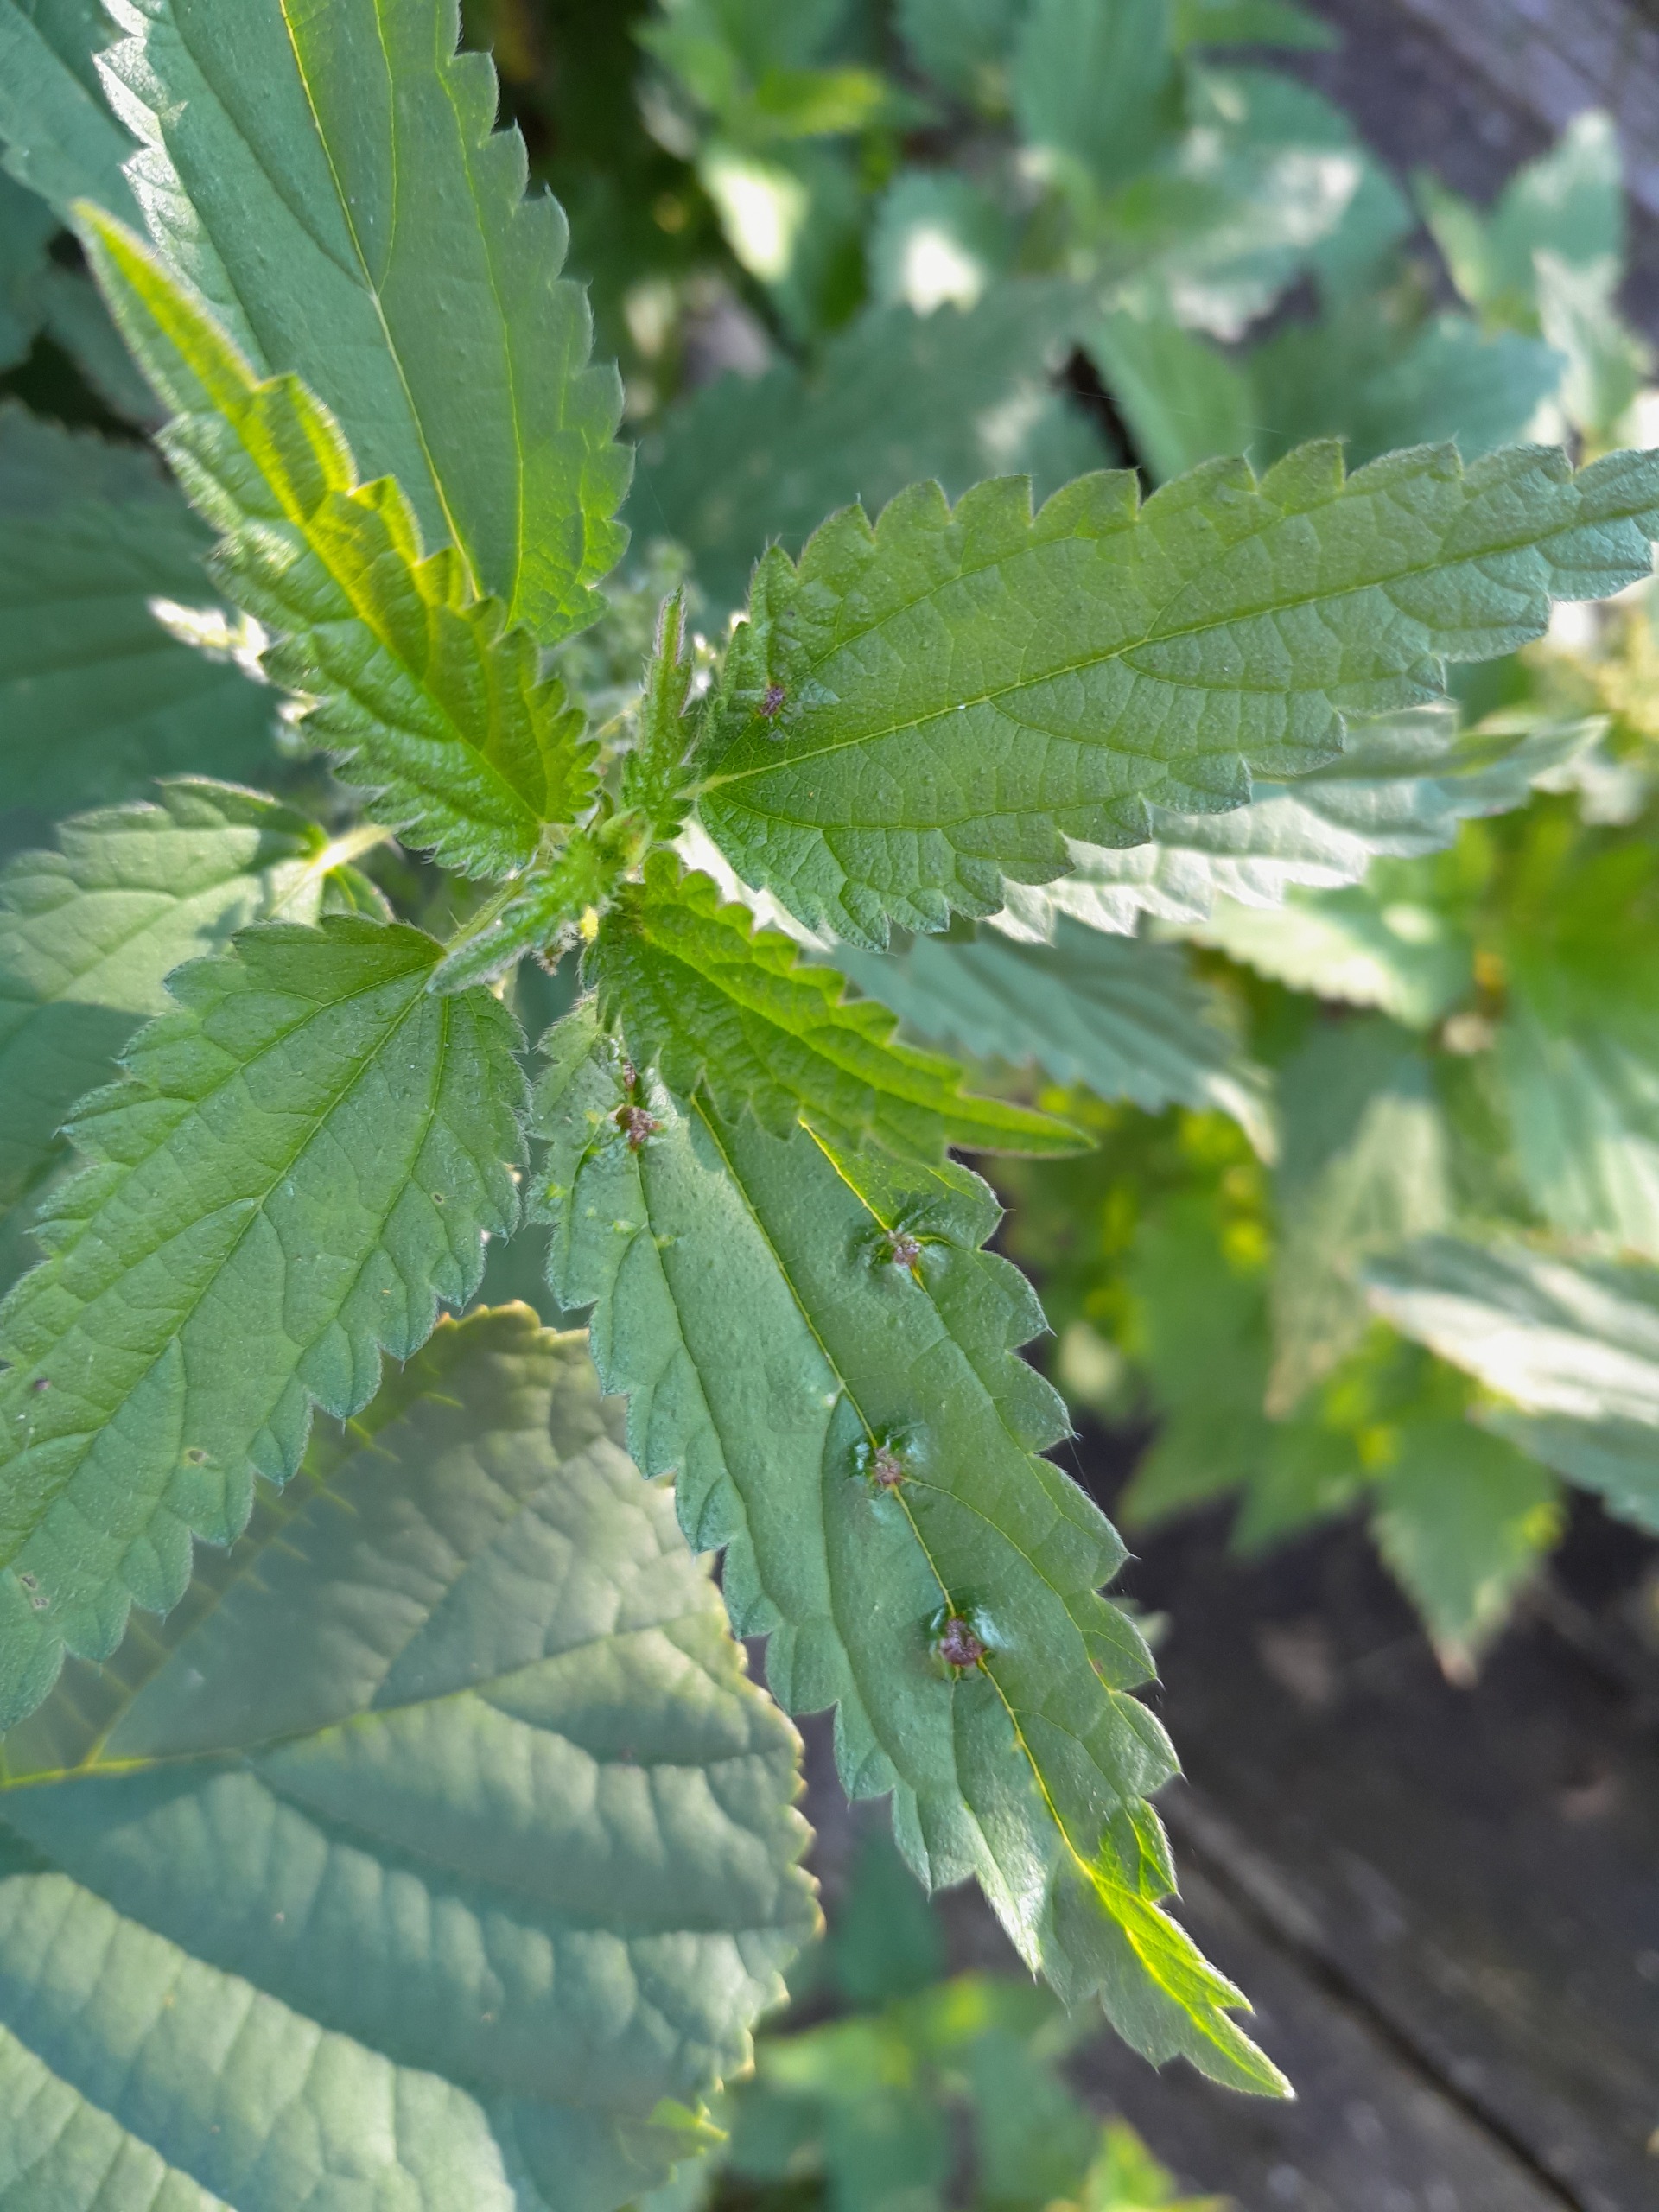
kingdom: Animalia
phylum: Arthropoda
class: Insecta
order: Diptera
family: Cecidomyiidae
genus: Dasineura
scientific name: Dasineura urticae
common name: Nældepunggalmyg
